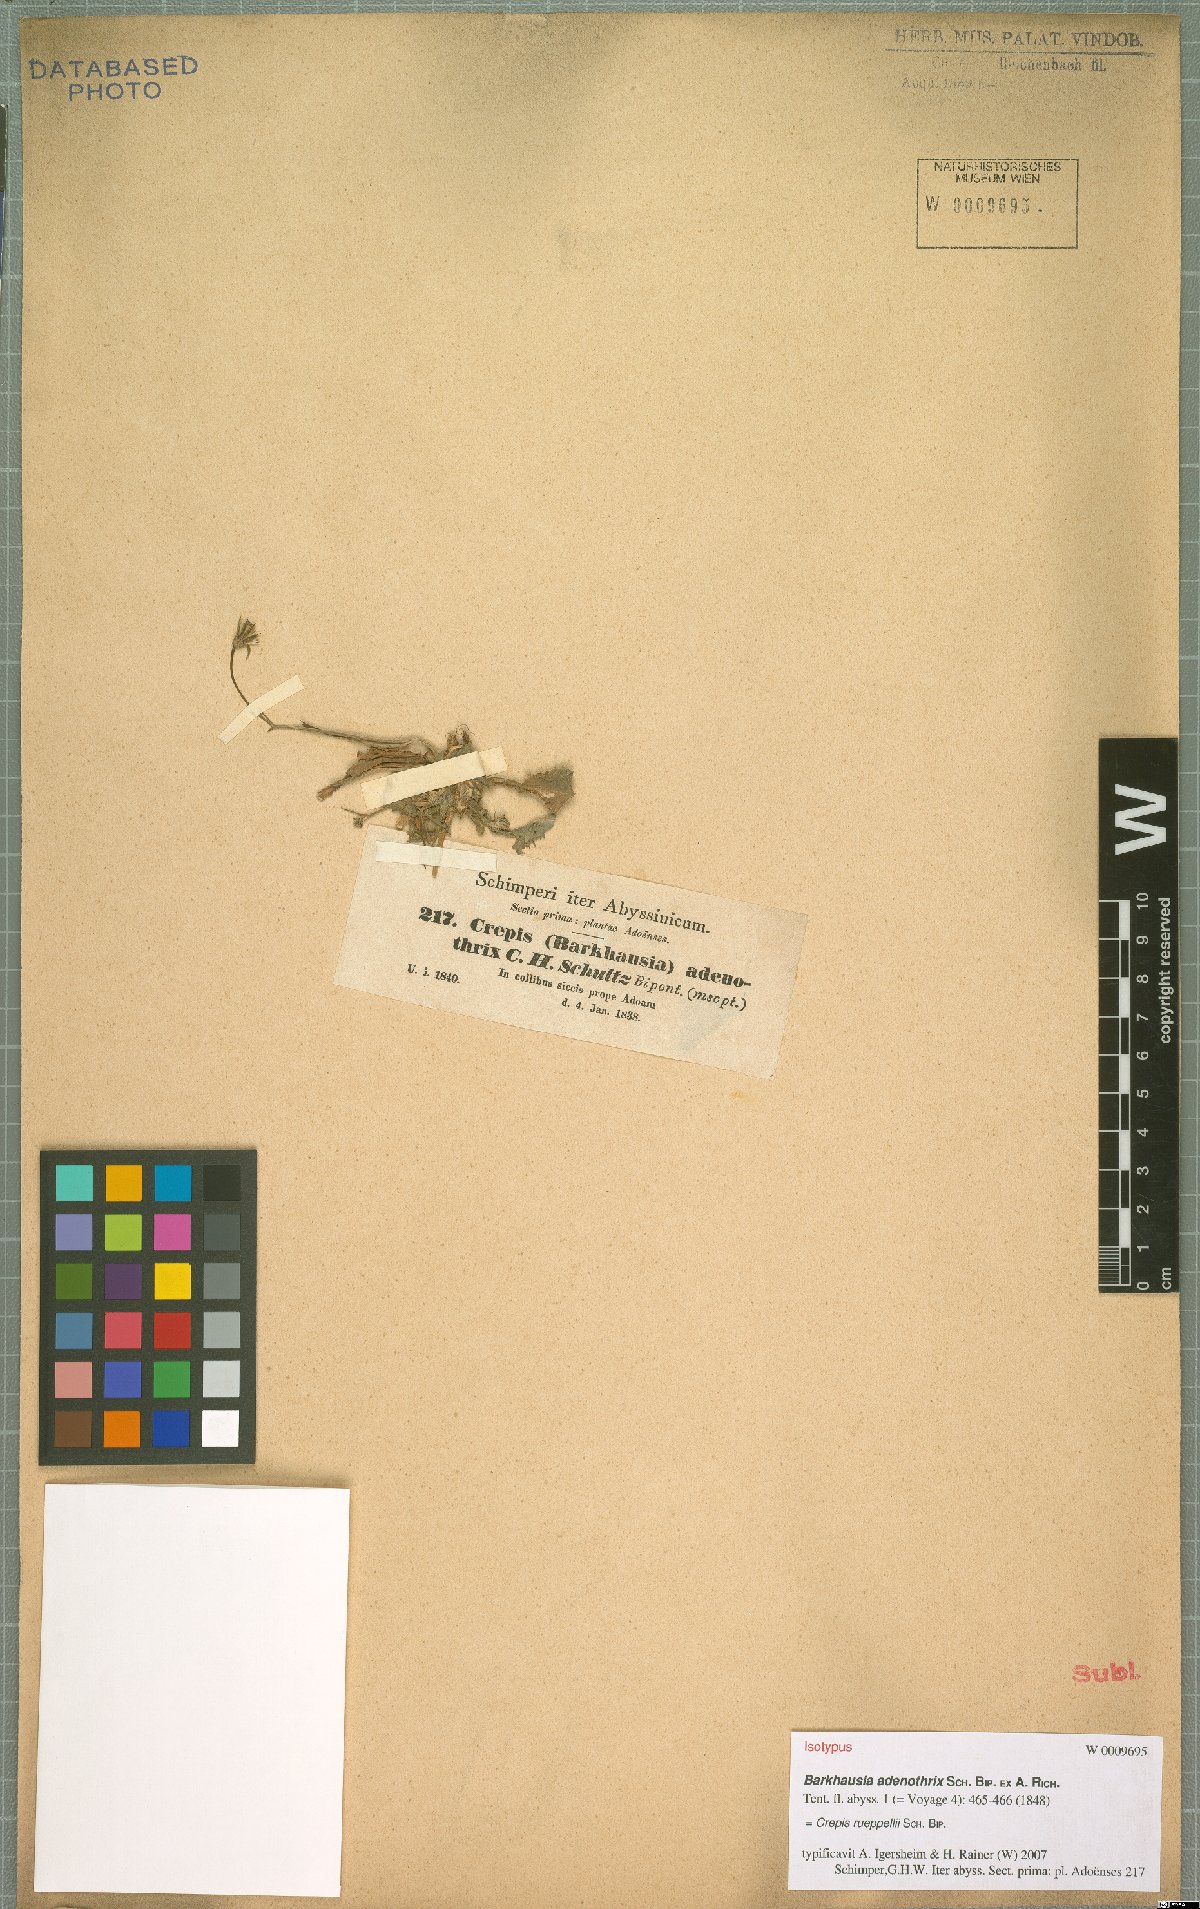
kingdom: Plantae
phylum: Tracheophyta
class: Magnoliopsida
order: Asterales
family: Asteraceae
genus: Crepis
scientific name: Crepis rueppellii
